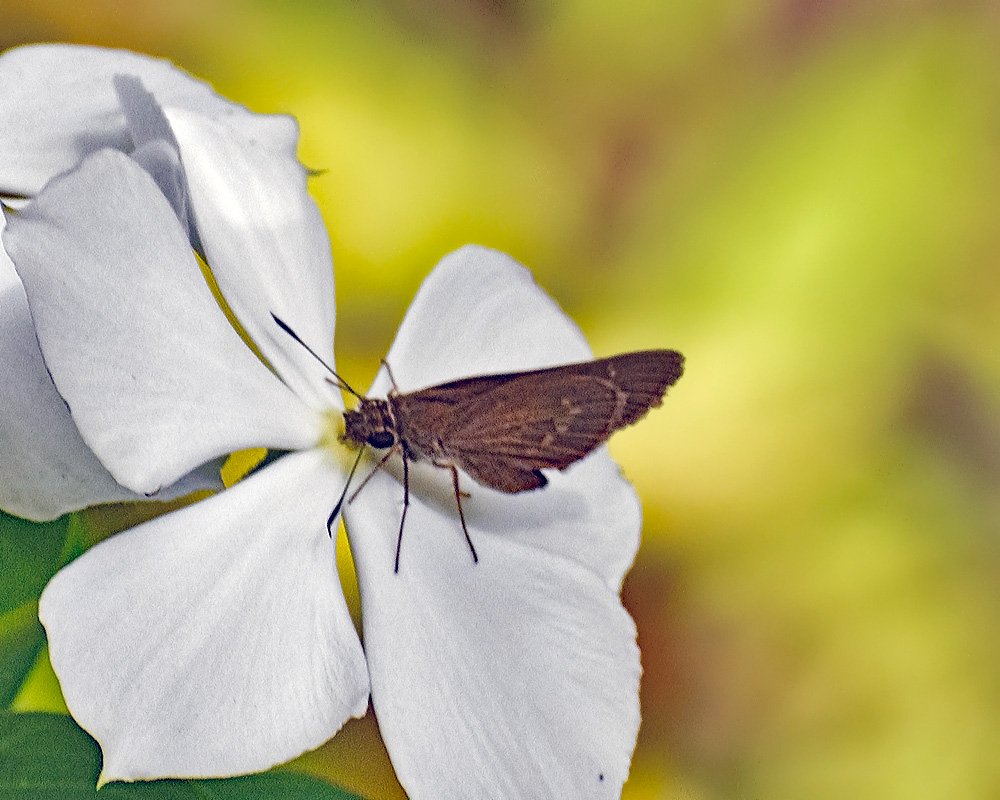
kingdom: Animalia
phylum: Arthropoda
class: Insecta
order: Lepidoptera
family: Hesperiidae
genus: Cymaenes
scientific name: Cymaenes tripunctus
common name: Three-spotted Skipper
